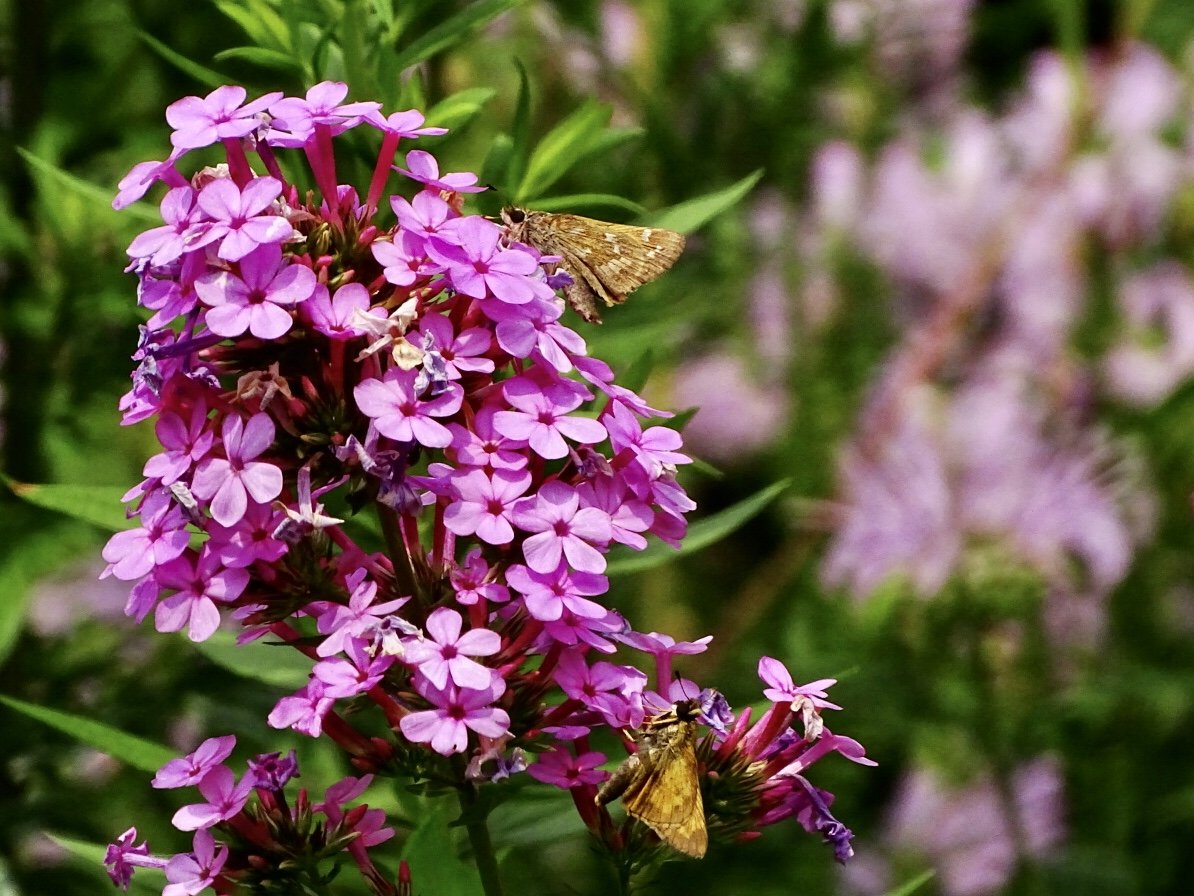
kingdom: Animalia
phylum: Arthropoda
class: Insecta
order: Lepidoptera
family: Hesperiidae
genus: Atalopedes
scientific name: Atalopedes campestris
